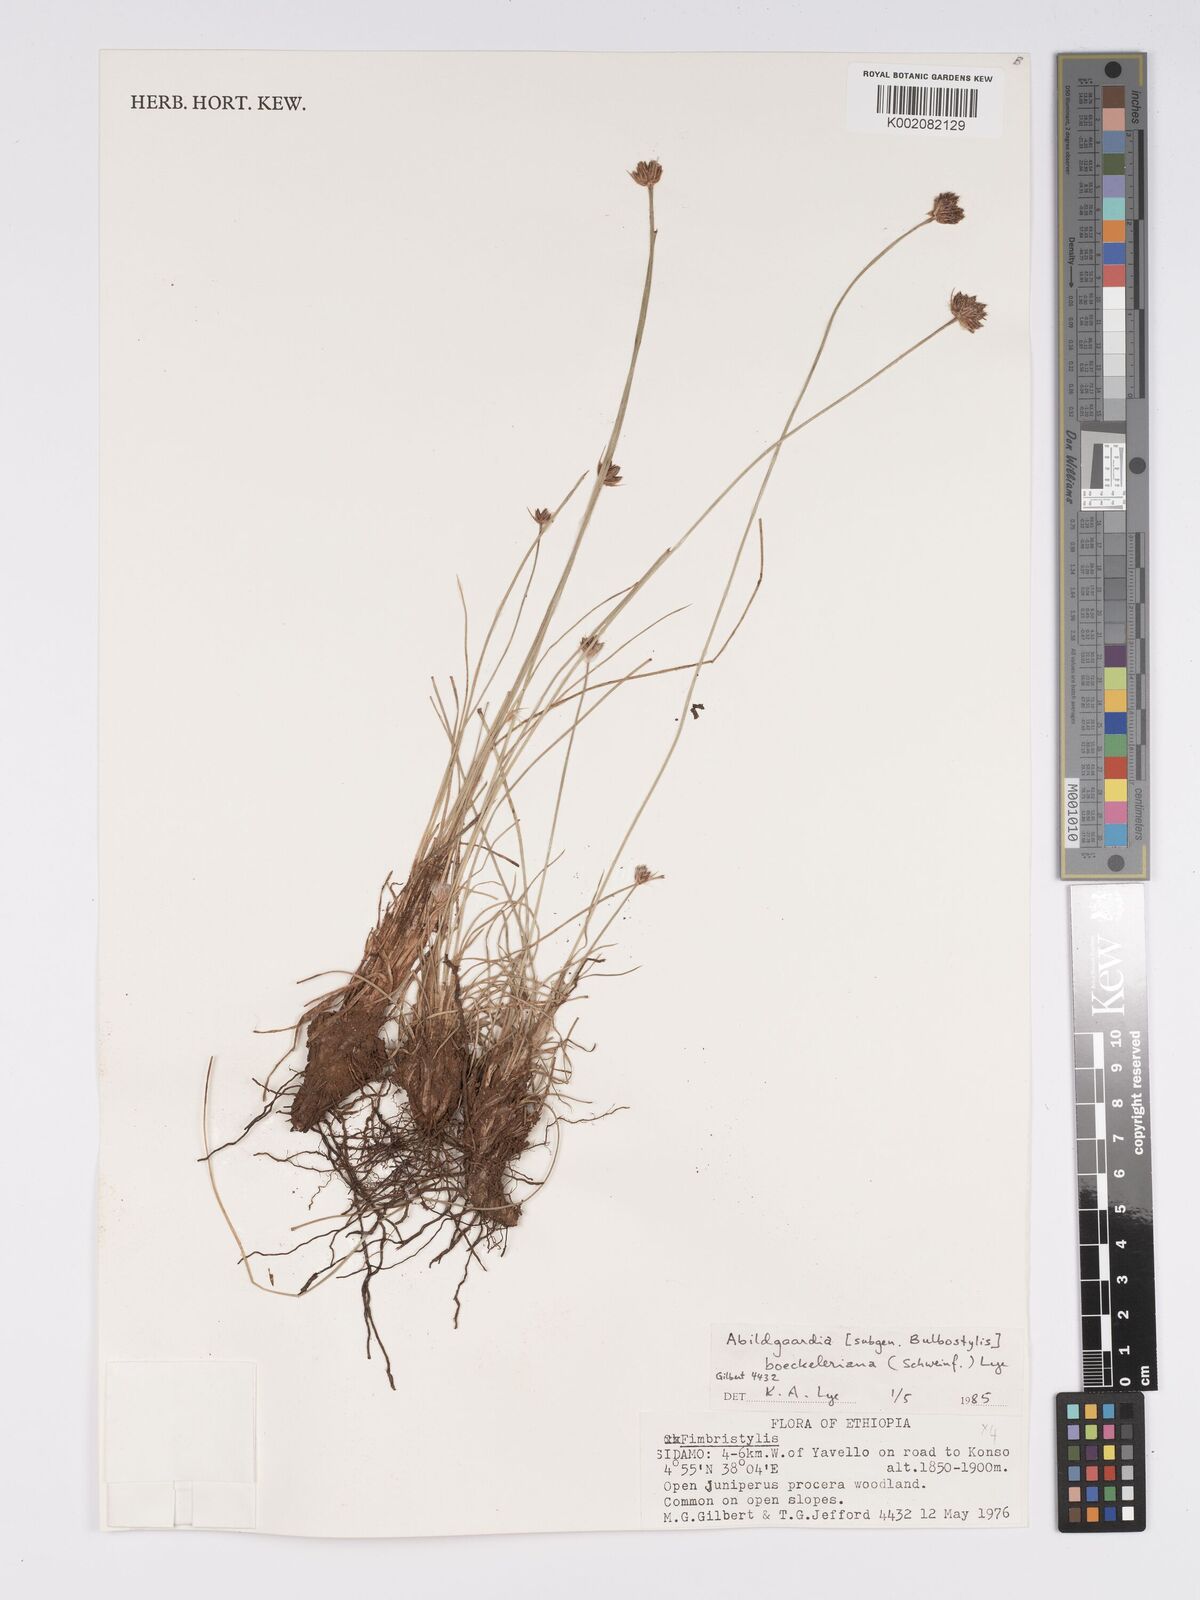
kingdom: Plantae
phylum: Tracheophyta
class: Liliopsida
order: Poales
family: Cyperaceae
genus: Bulbostylis
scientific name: Bulbostylis boeckeleriana
